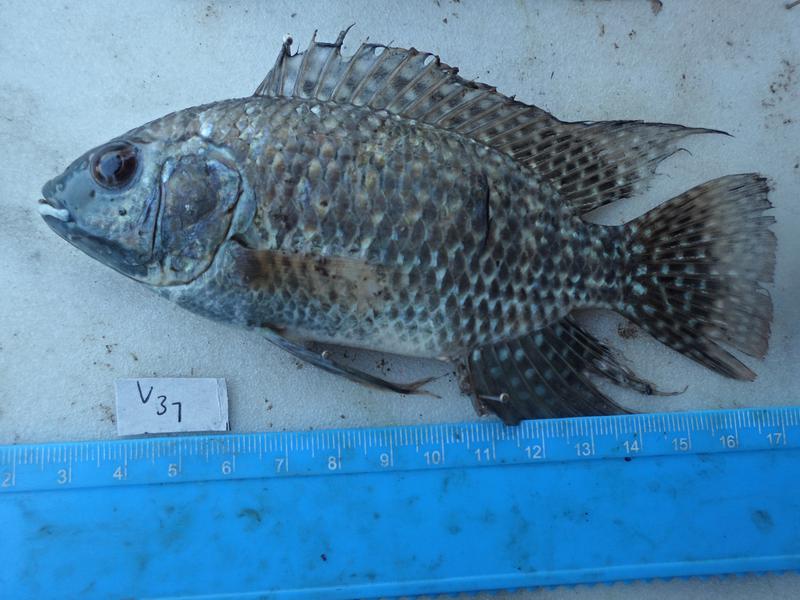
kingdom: Animalia
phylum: Chordata
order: Perciformes
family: Cichlidae
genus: Oreochromis
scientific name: Oreochromis leucostictus
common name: Blue spotted tilapia
